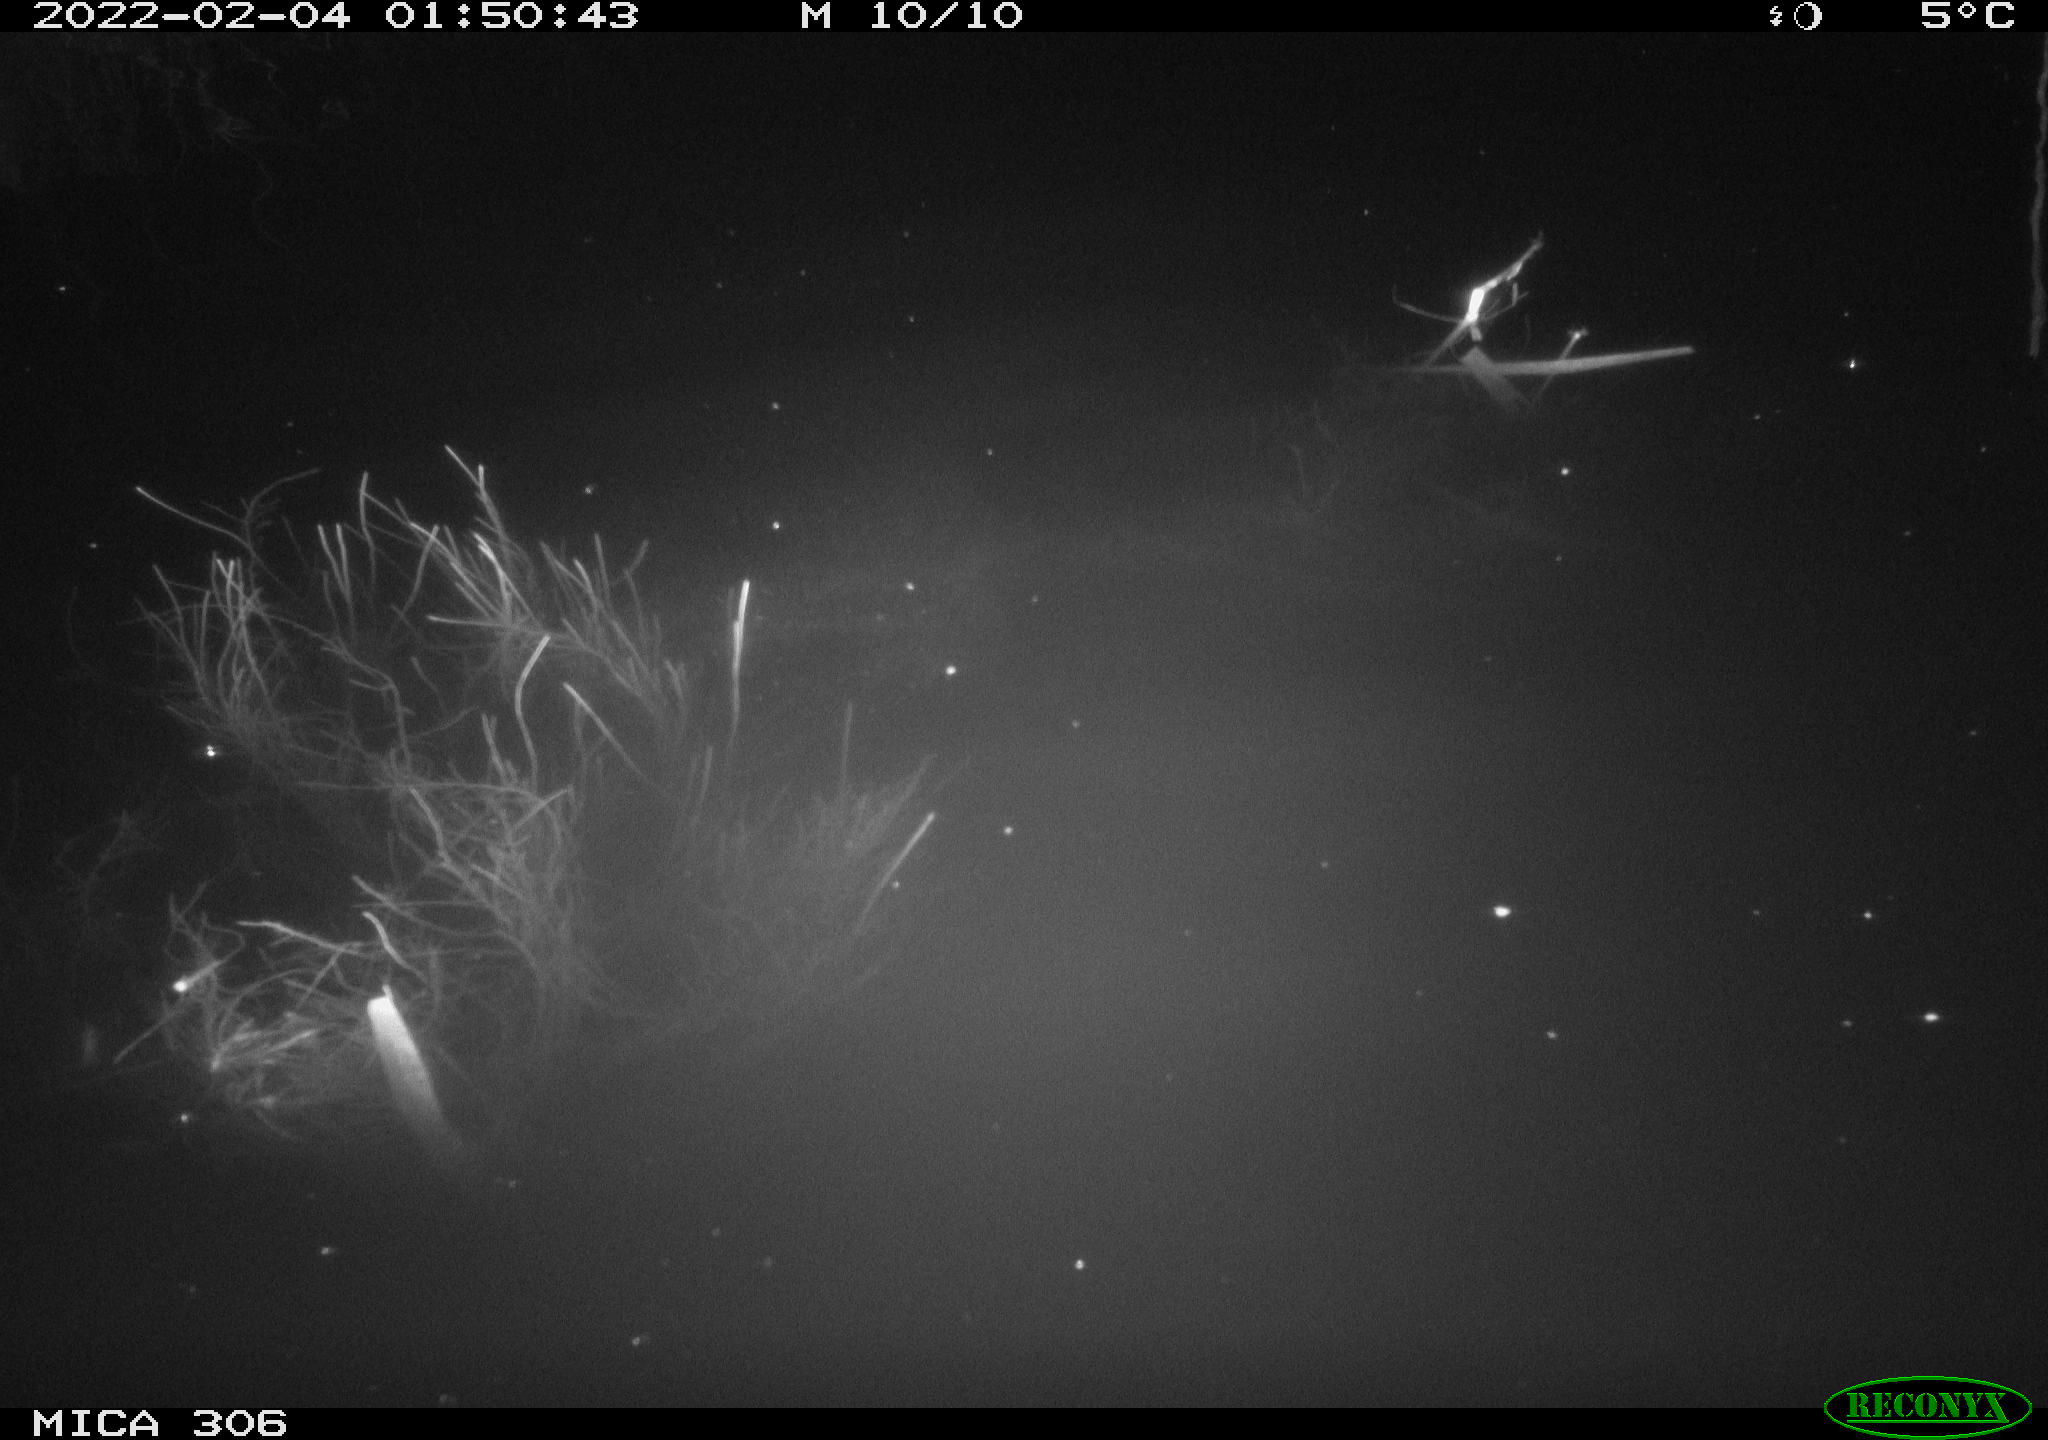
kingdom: Animalia
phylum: Chordata
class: Mammalia
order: Rodentia
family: Cricetidae
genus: Ondatra
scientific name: Ondatra zibethicus
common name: Muskrat
